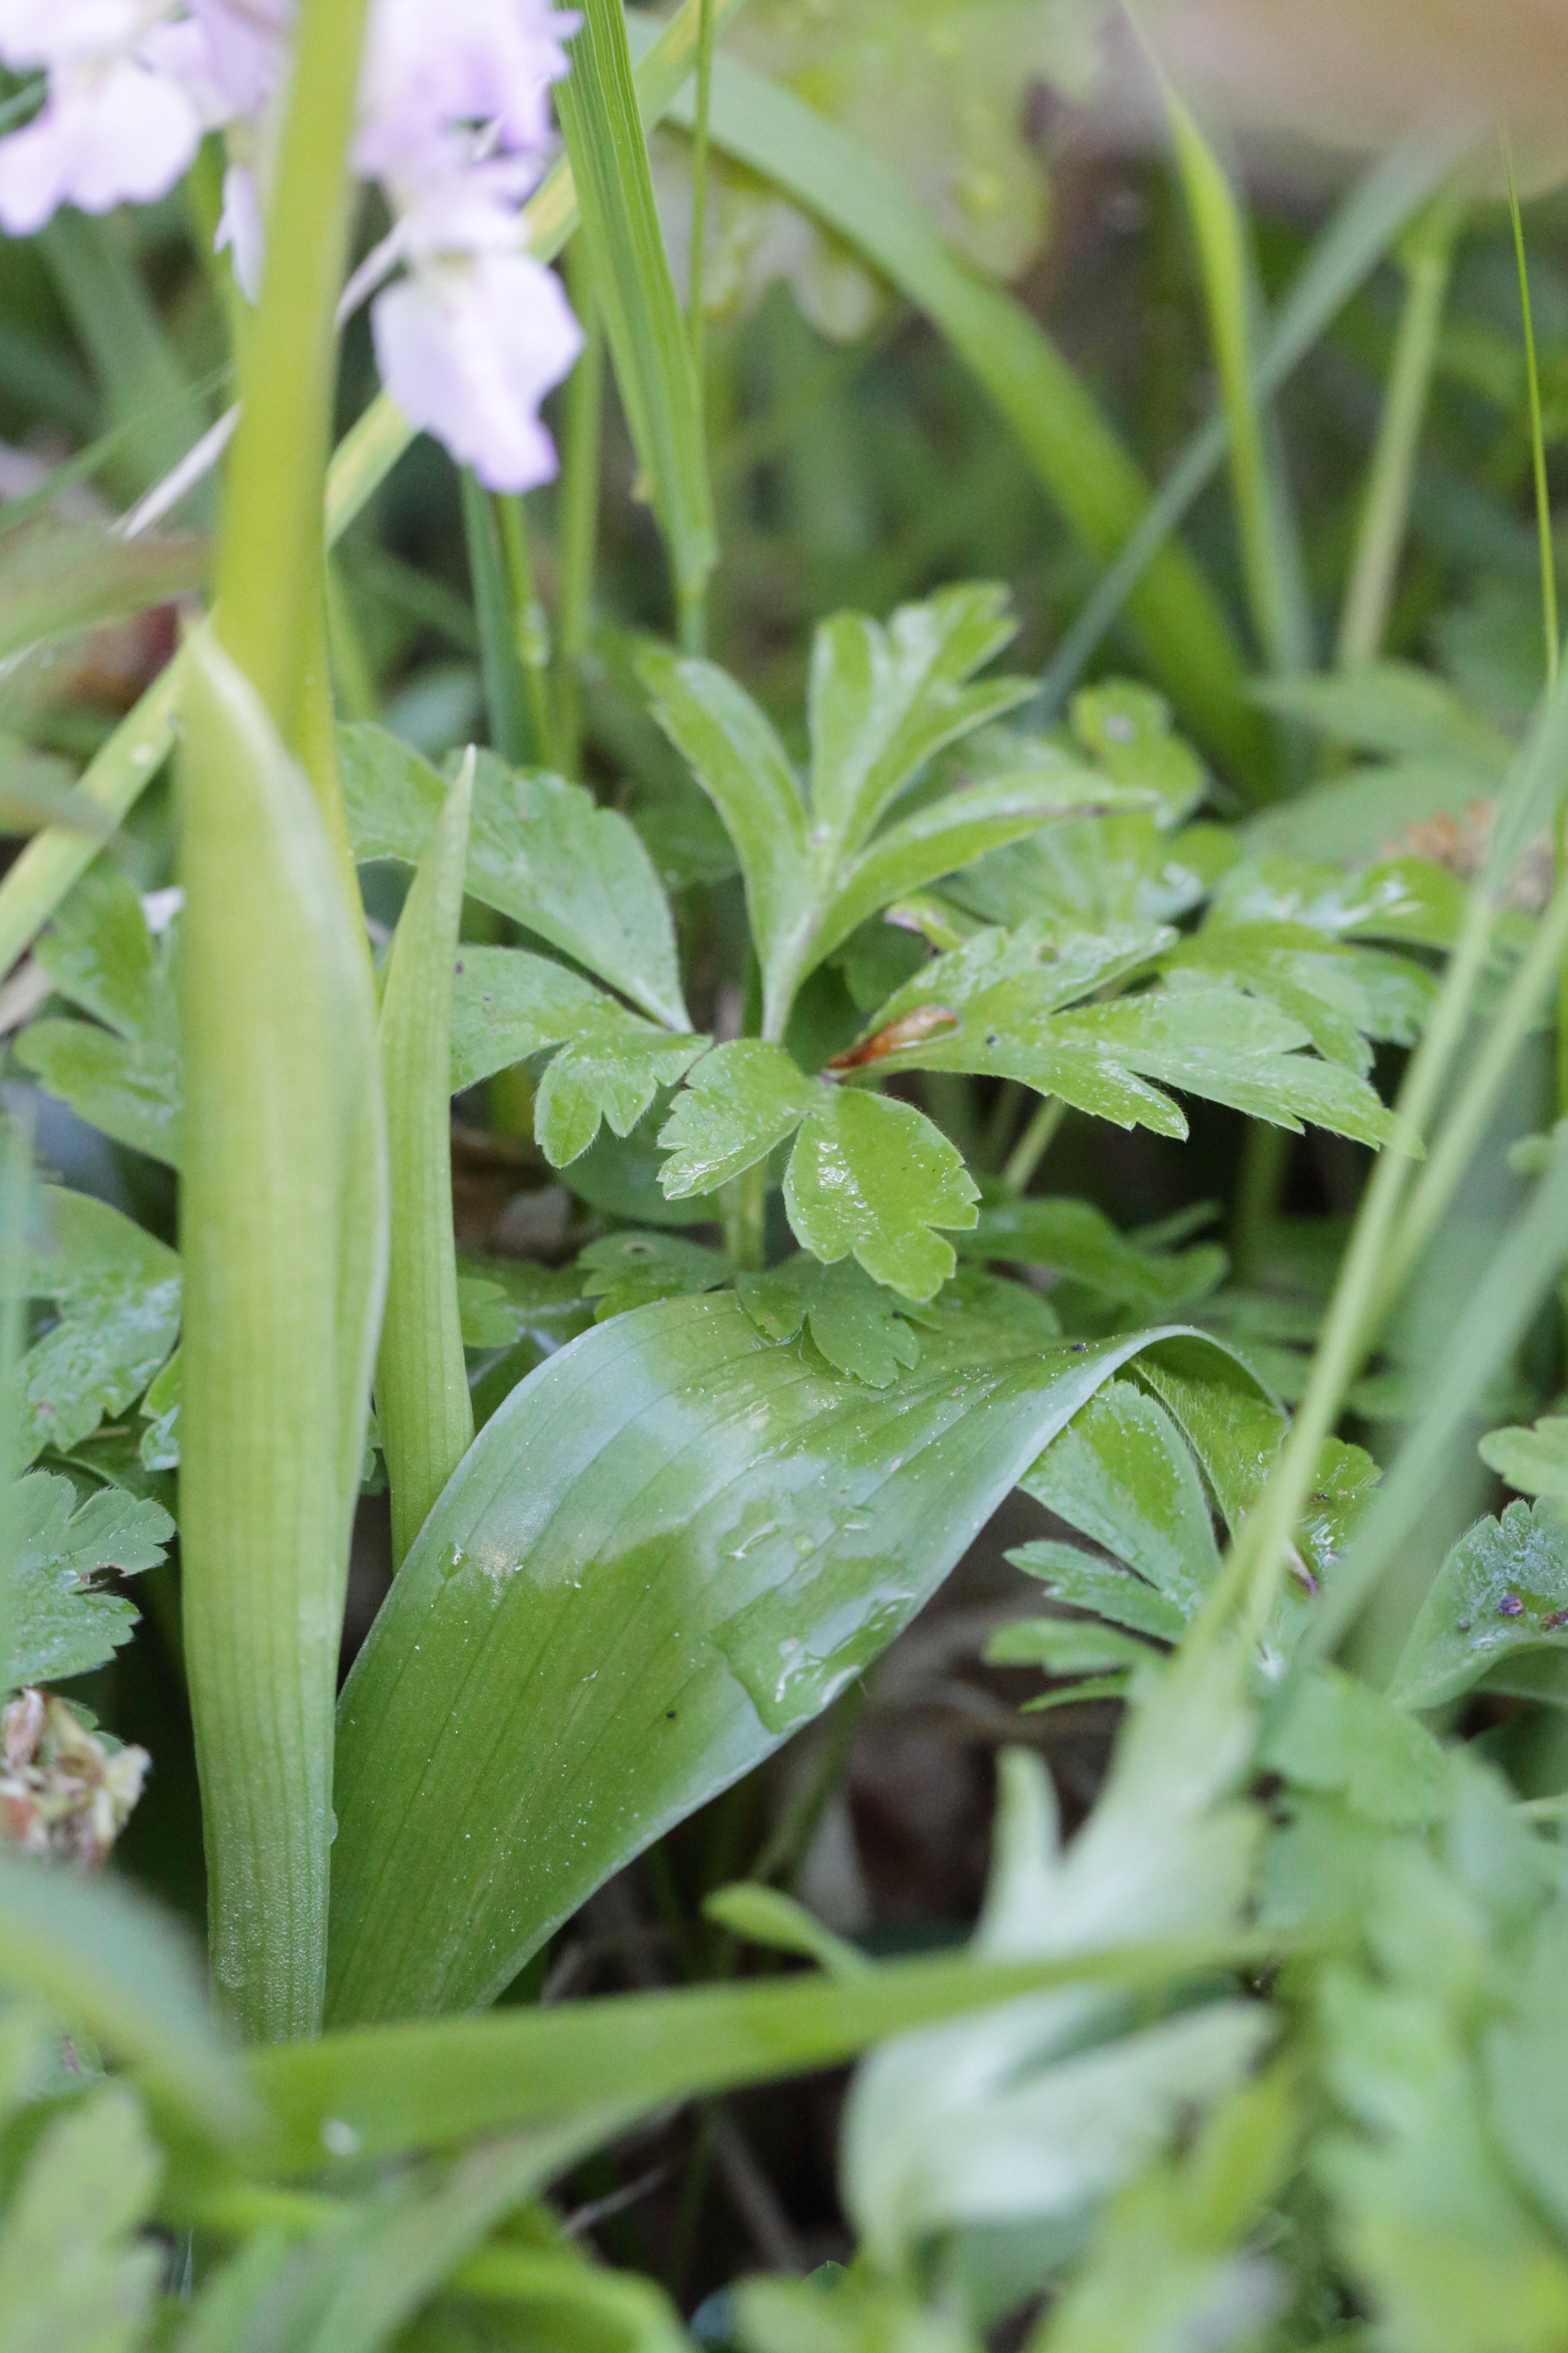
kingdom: Plantae
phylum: Tracheophyta
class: Liliopsida
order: Asparagales
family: Orchidaceae
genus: Orchis
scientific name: Orchis mascula
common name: Tyndakset gøgeurt
